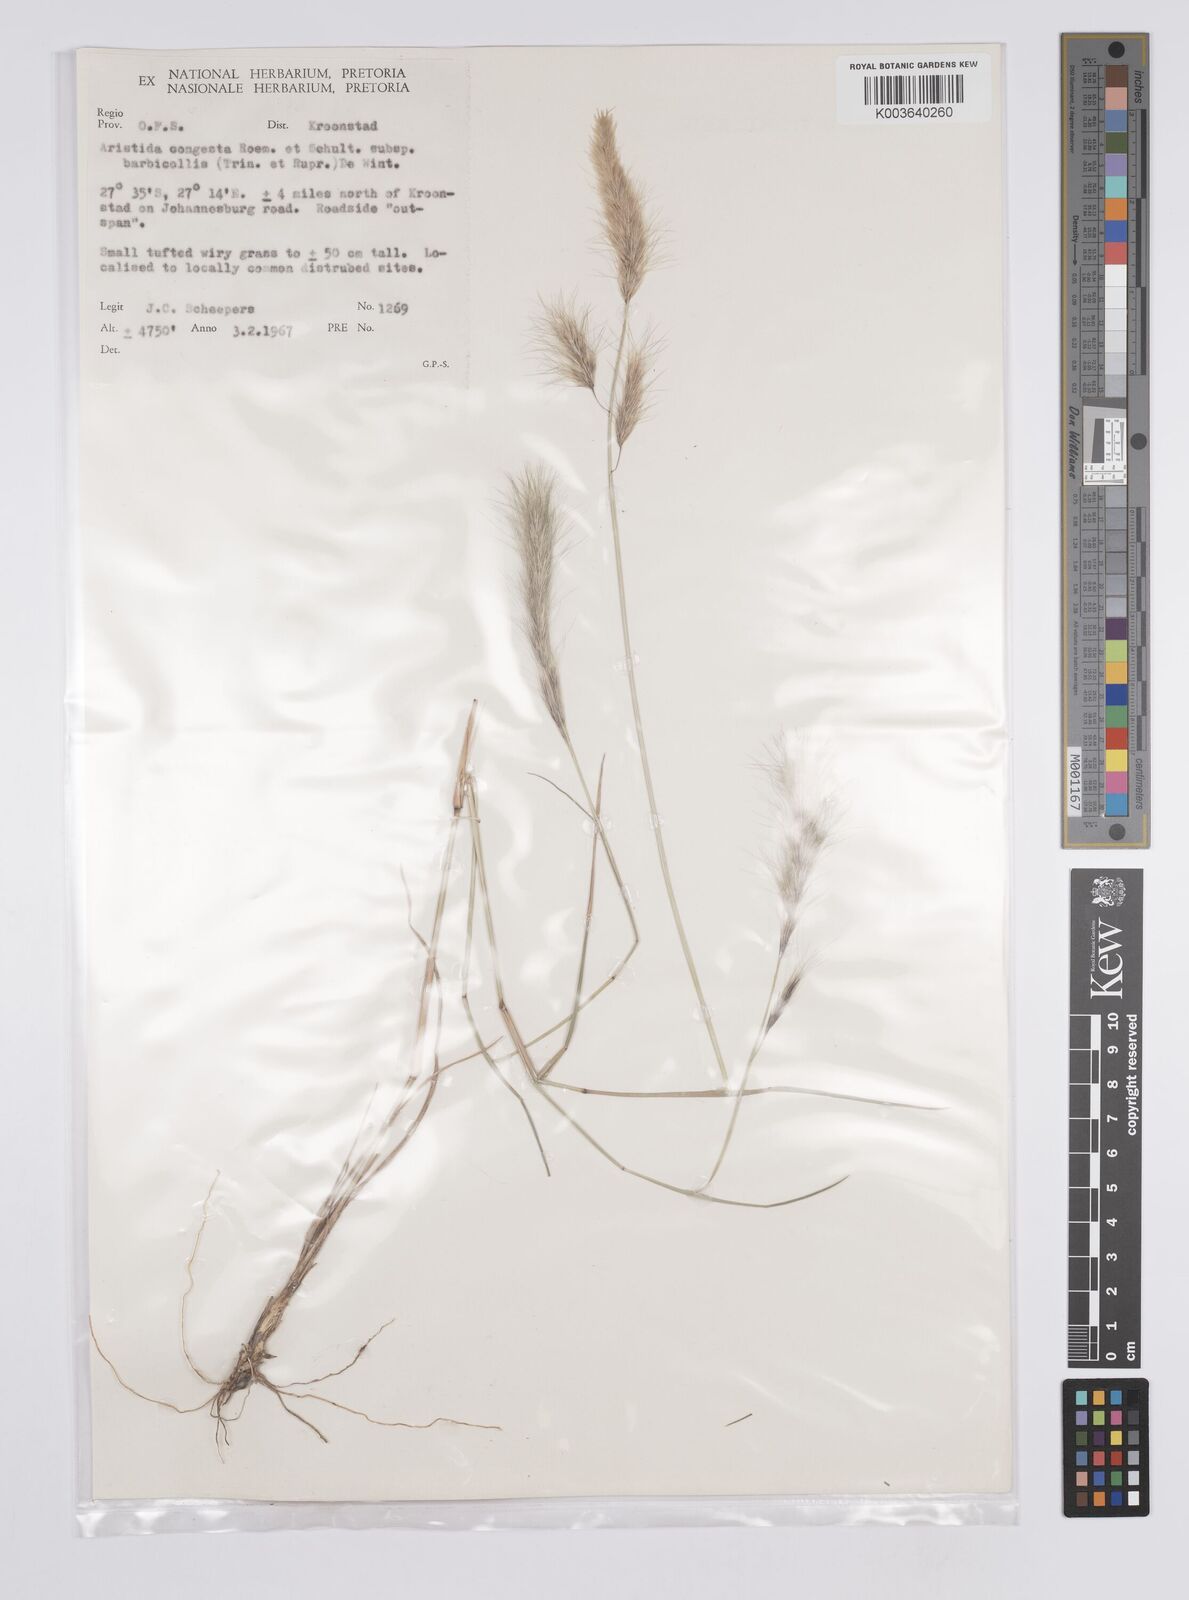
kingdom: Plantae
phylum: Tracheophyta
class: Liliopsida
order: Poales
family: Poaceae
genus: Aristida
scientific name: Aristida congesta
